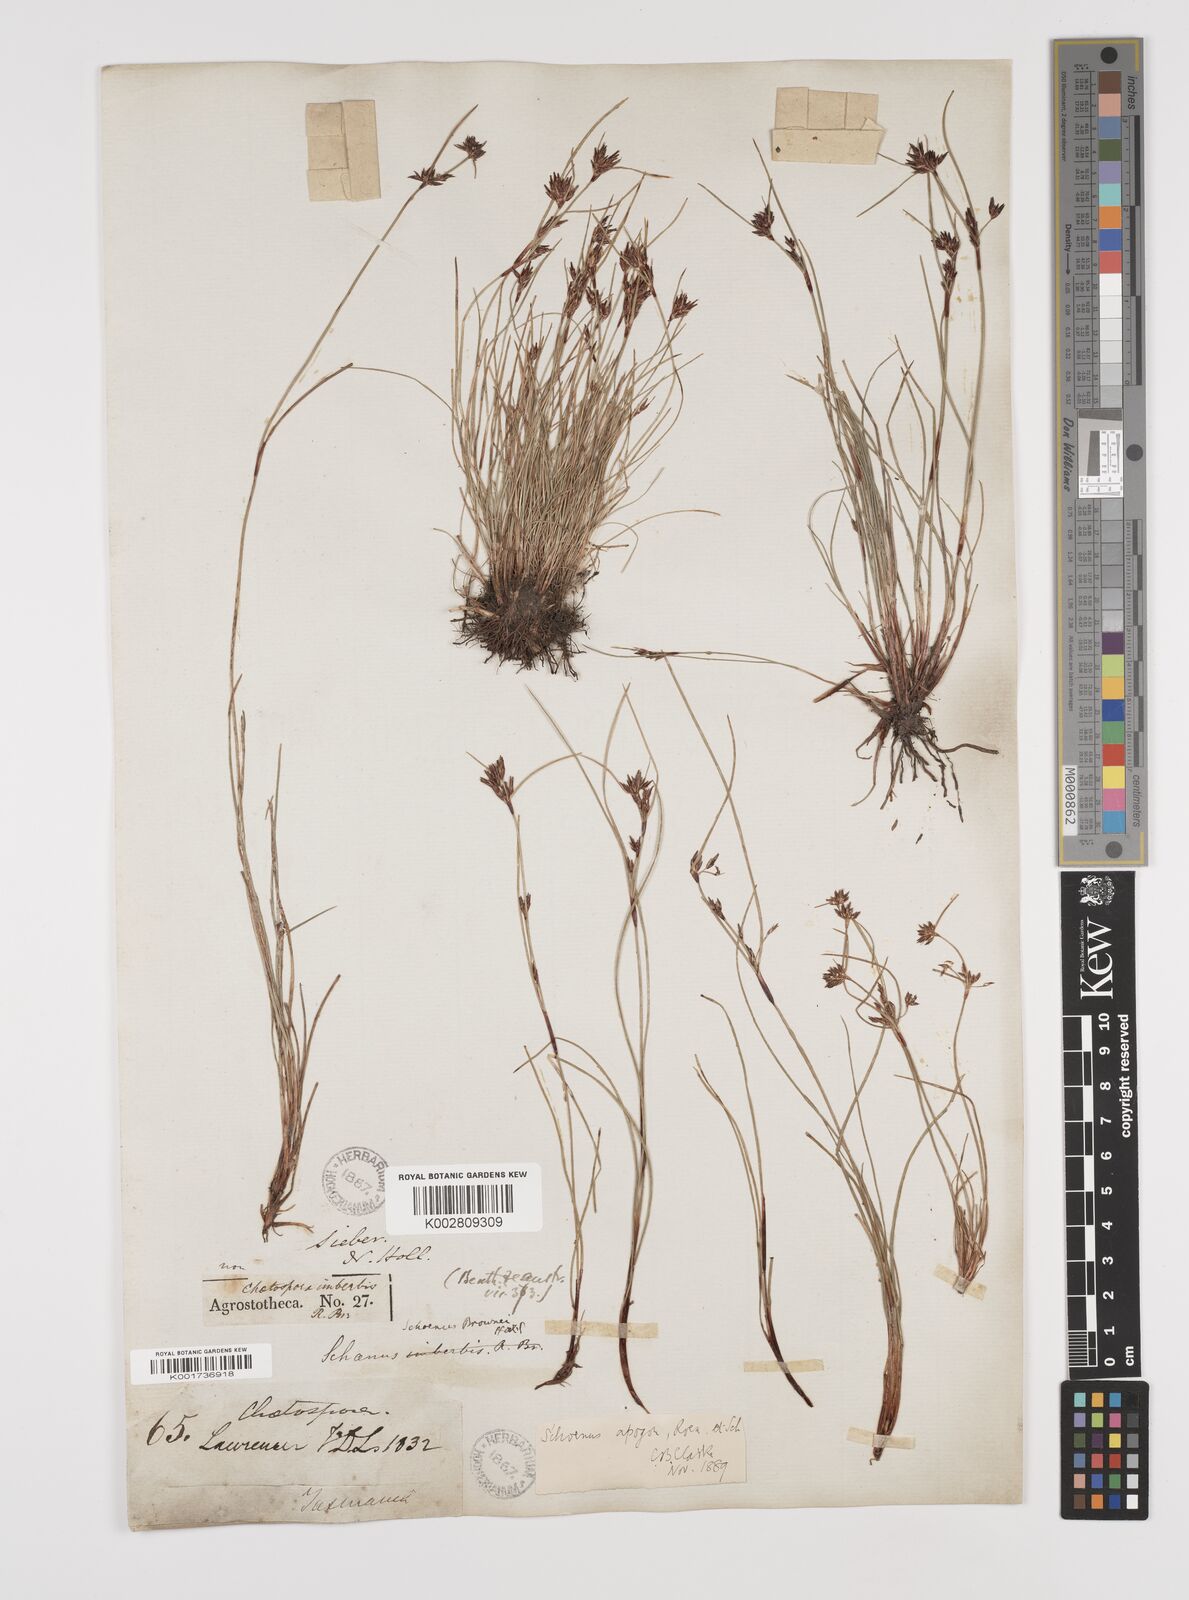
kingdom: Plantae
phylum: Tracheophyta
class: Liliopsida
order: Poales
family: Cyperaceae
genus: Schoenus
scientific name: Schoenus apogon
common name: Smooth bogrush
